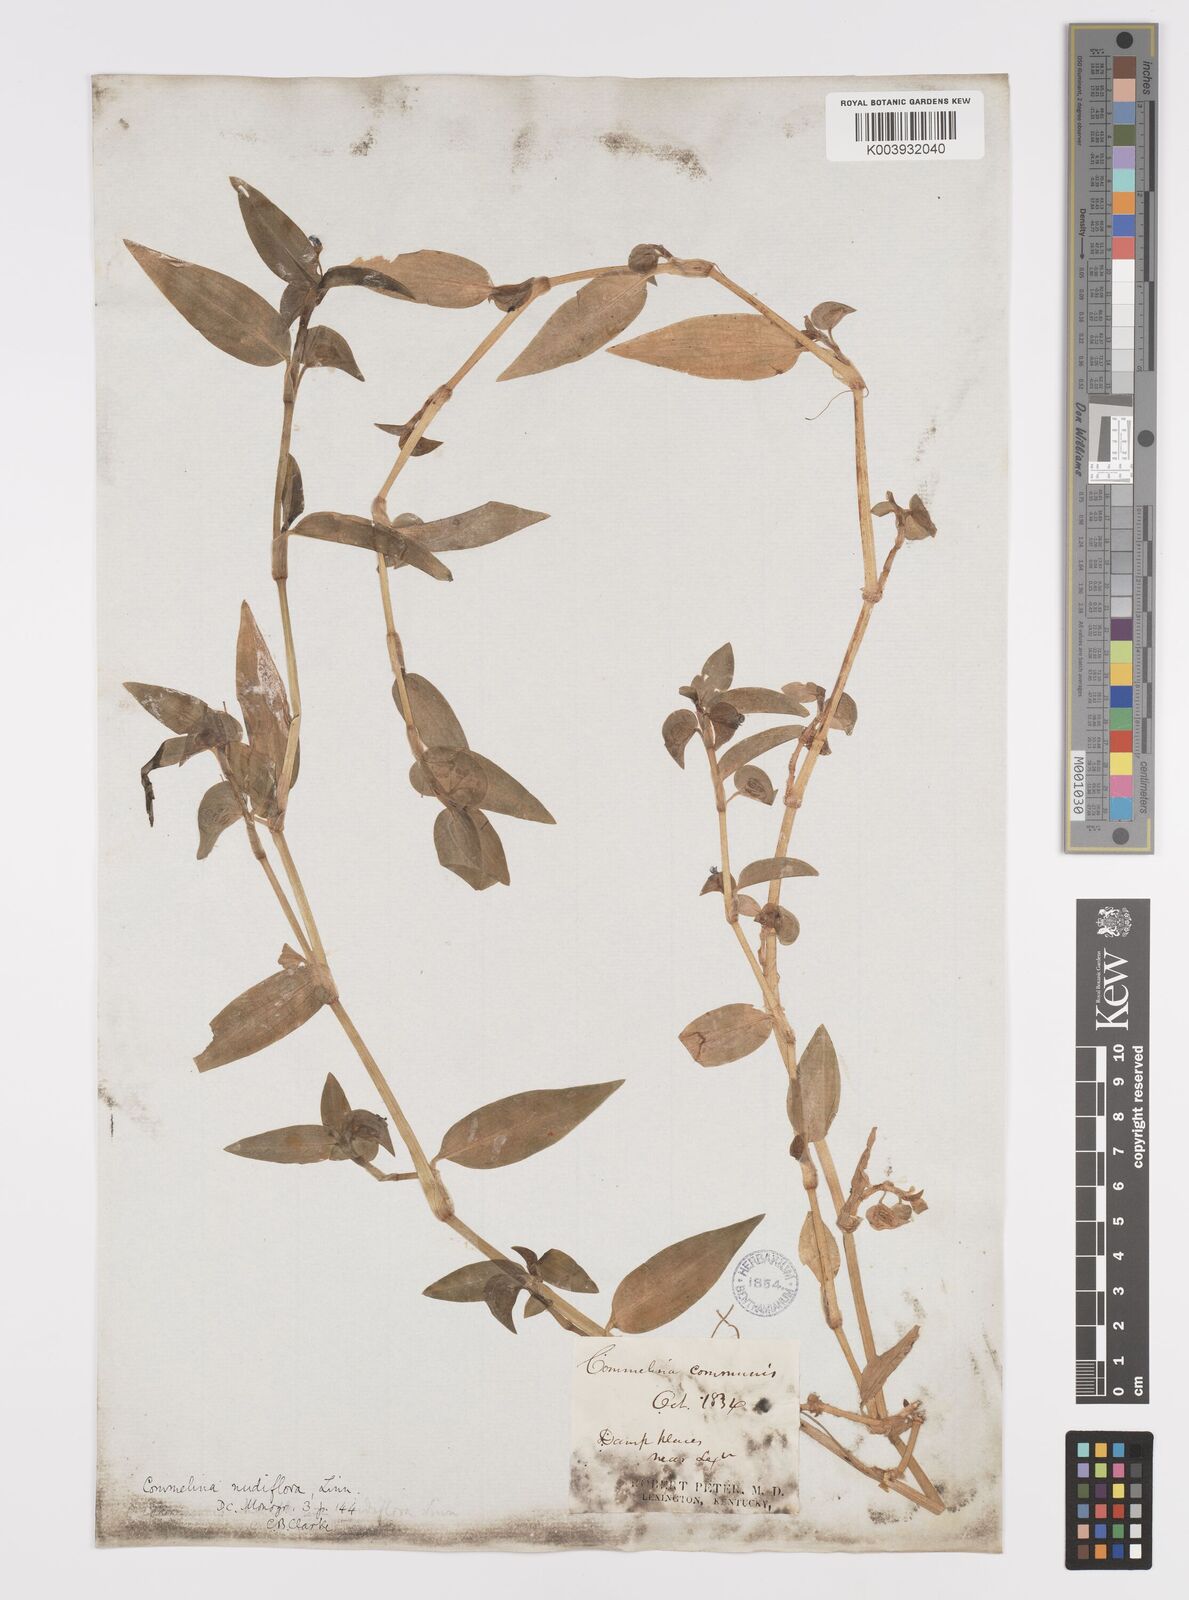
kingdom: Plantae
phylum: Tracheophyta
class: Liliopsida
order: Commelinales
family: Commelinaceae
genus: Commelina
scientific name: Commelina diffusa
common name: Climbing dayflower
